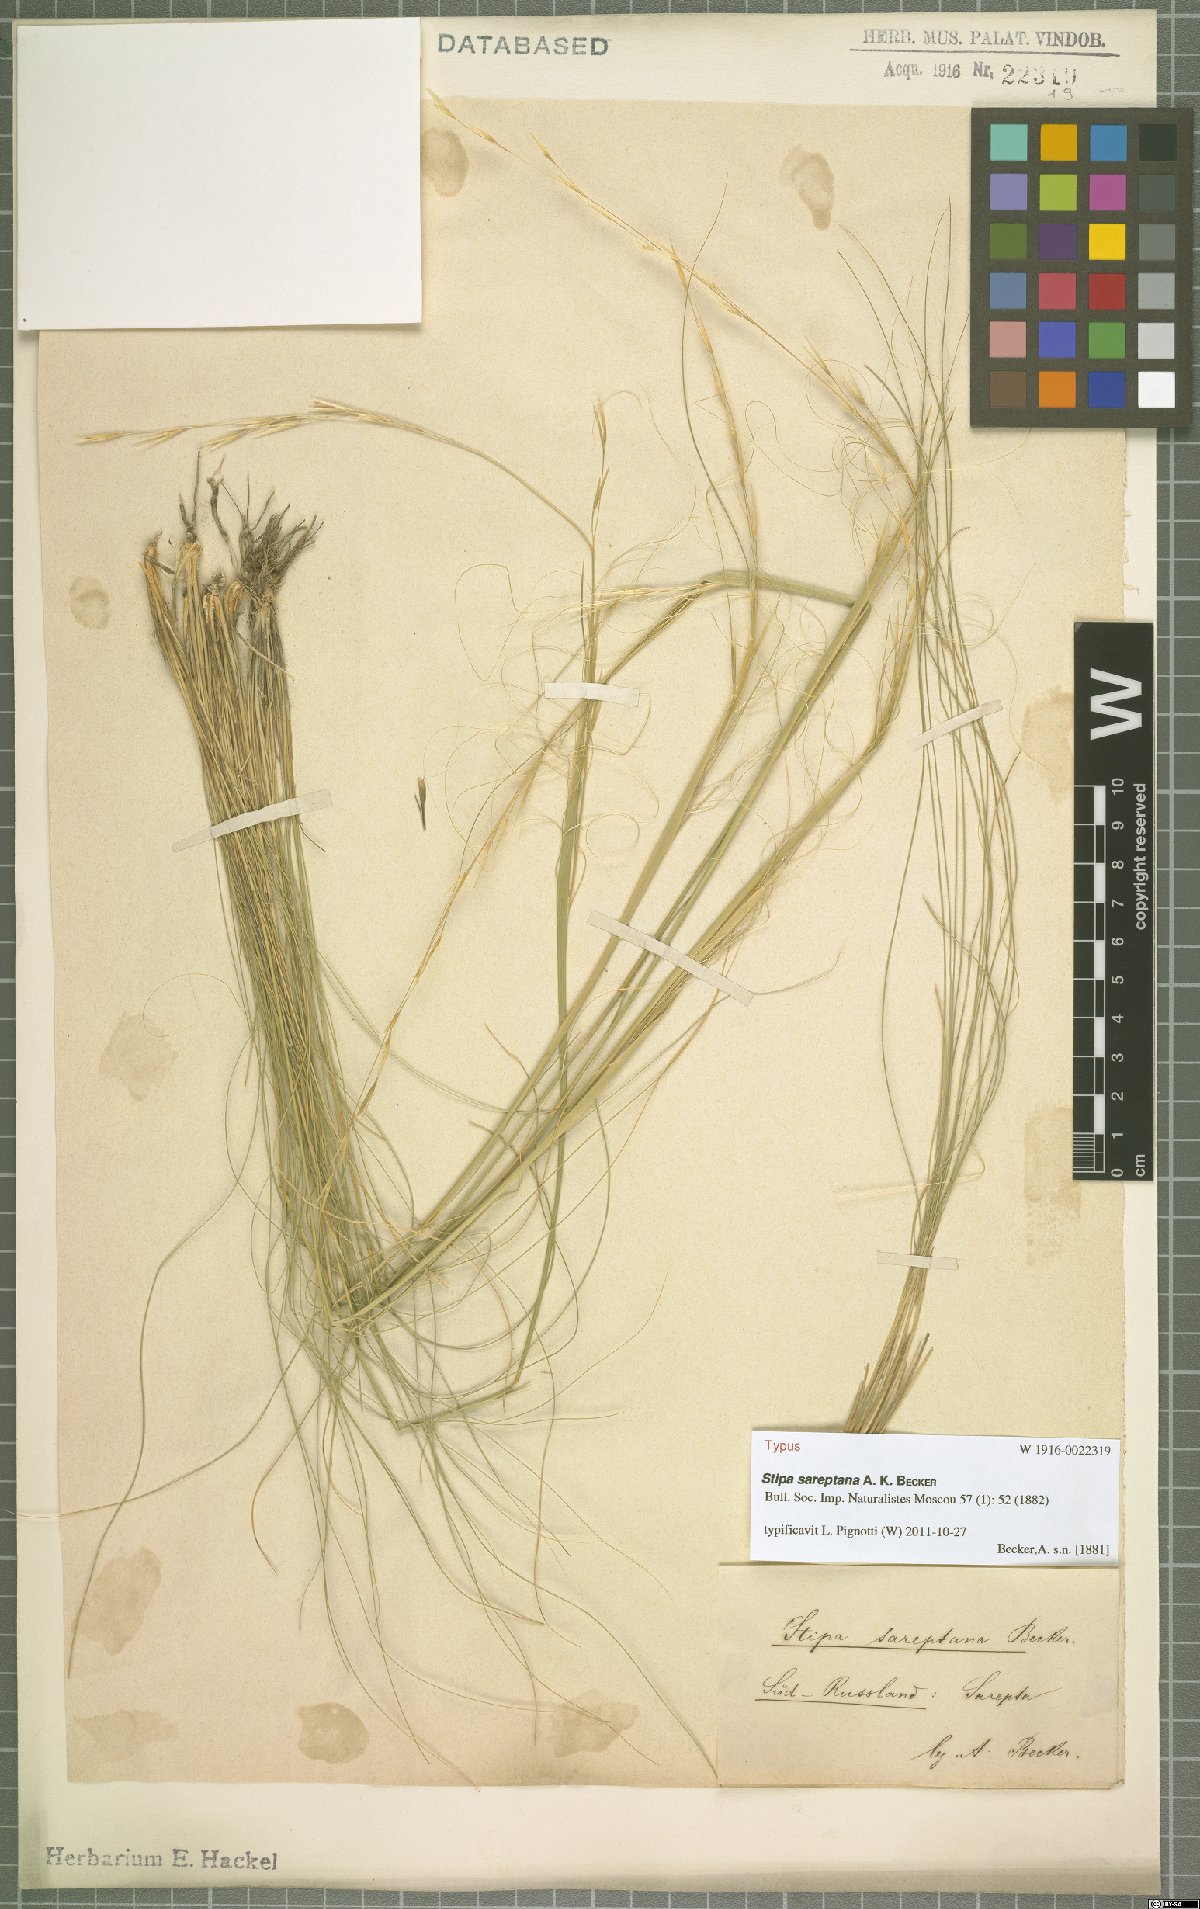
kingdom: Plantae
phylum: Tracheophyta
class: Liliopsida
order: Poales
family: Poaceae
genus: Stipa
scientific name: Stipa sareptana
